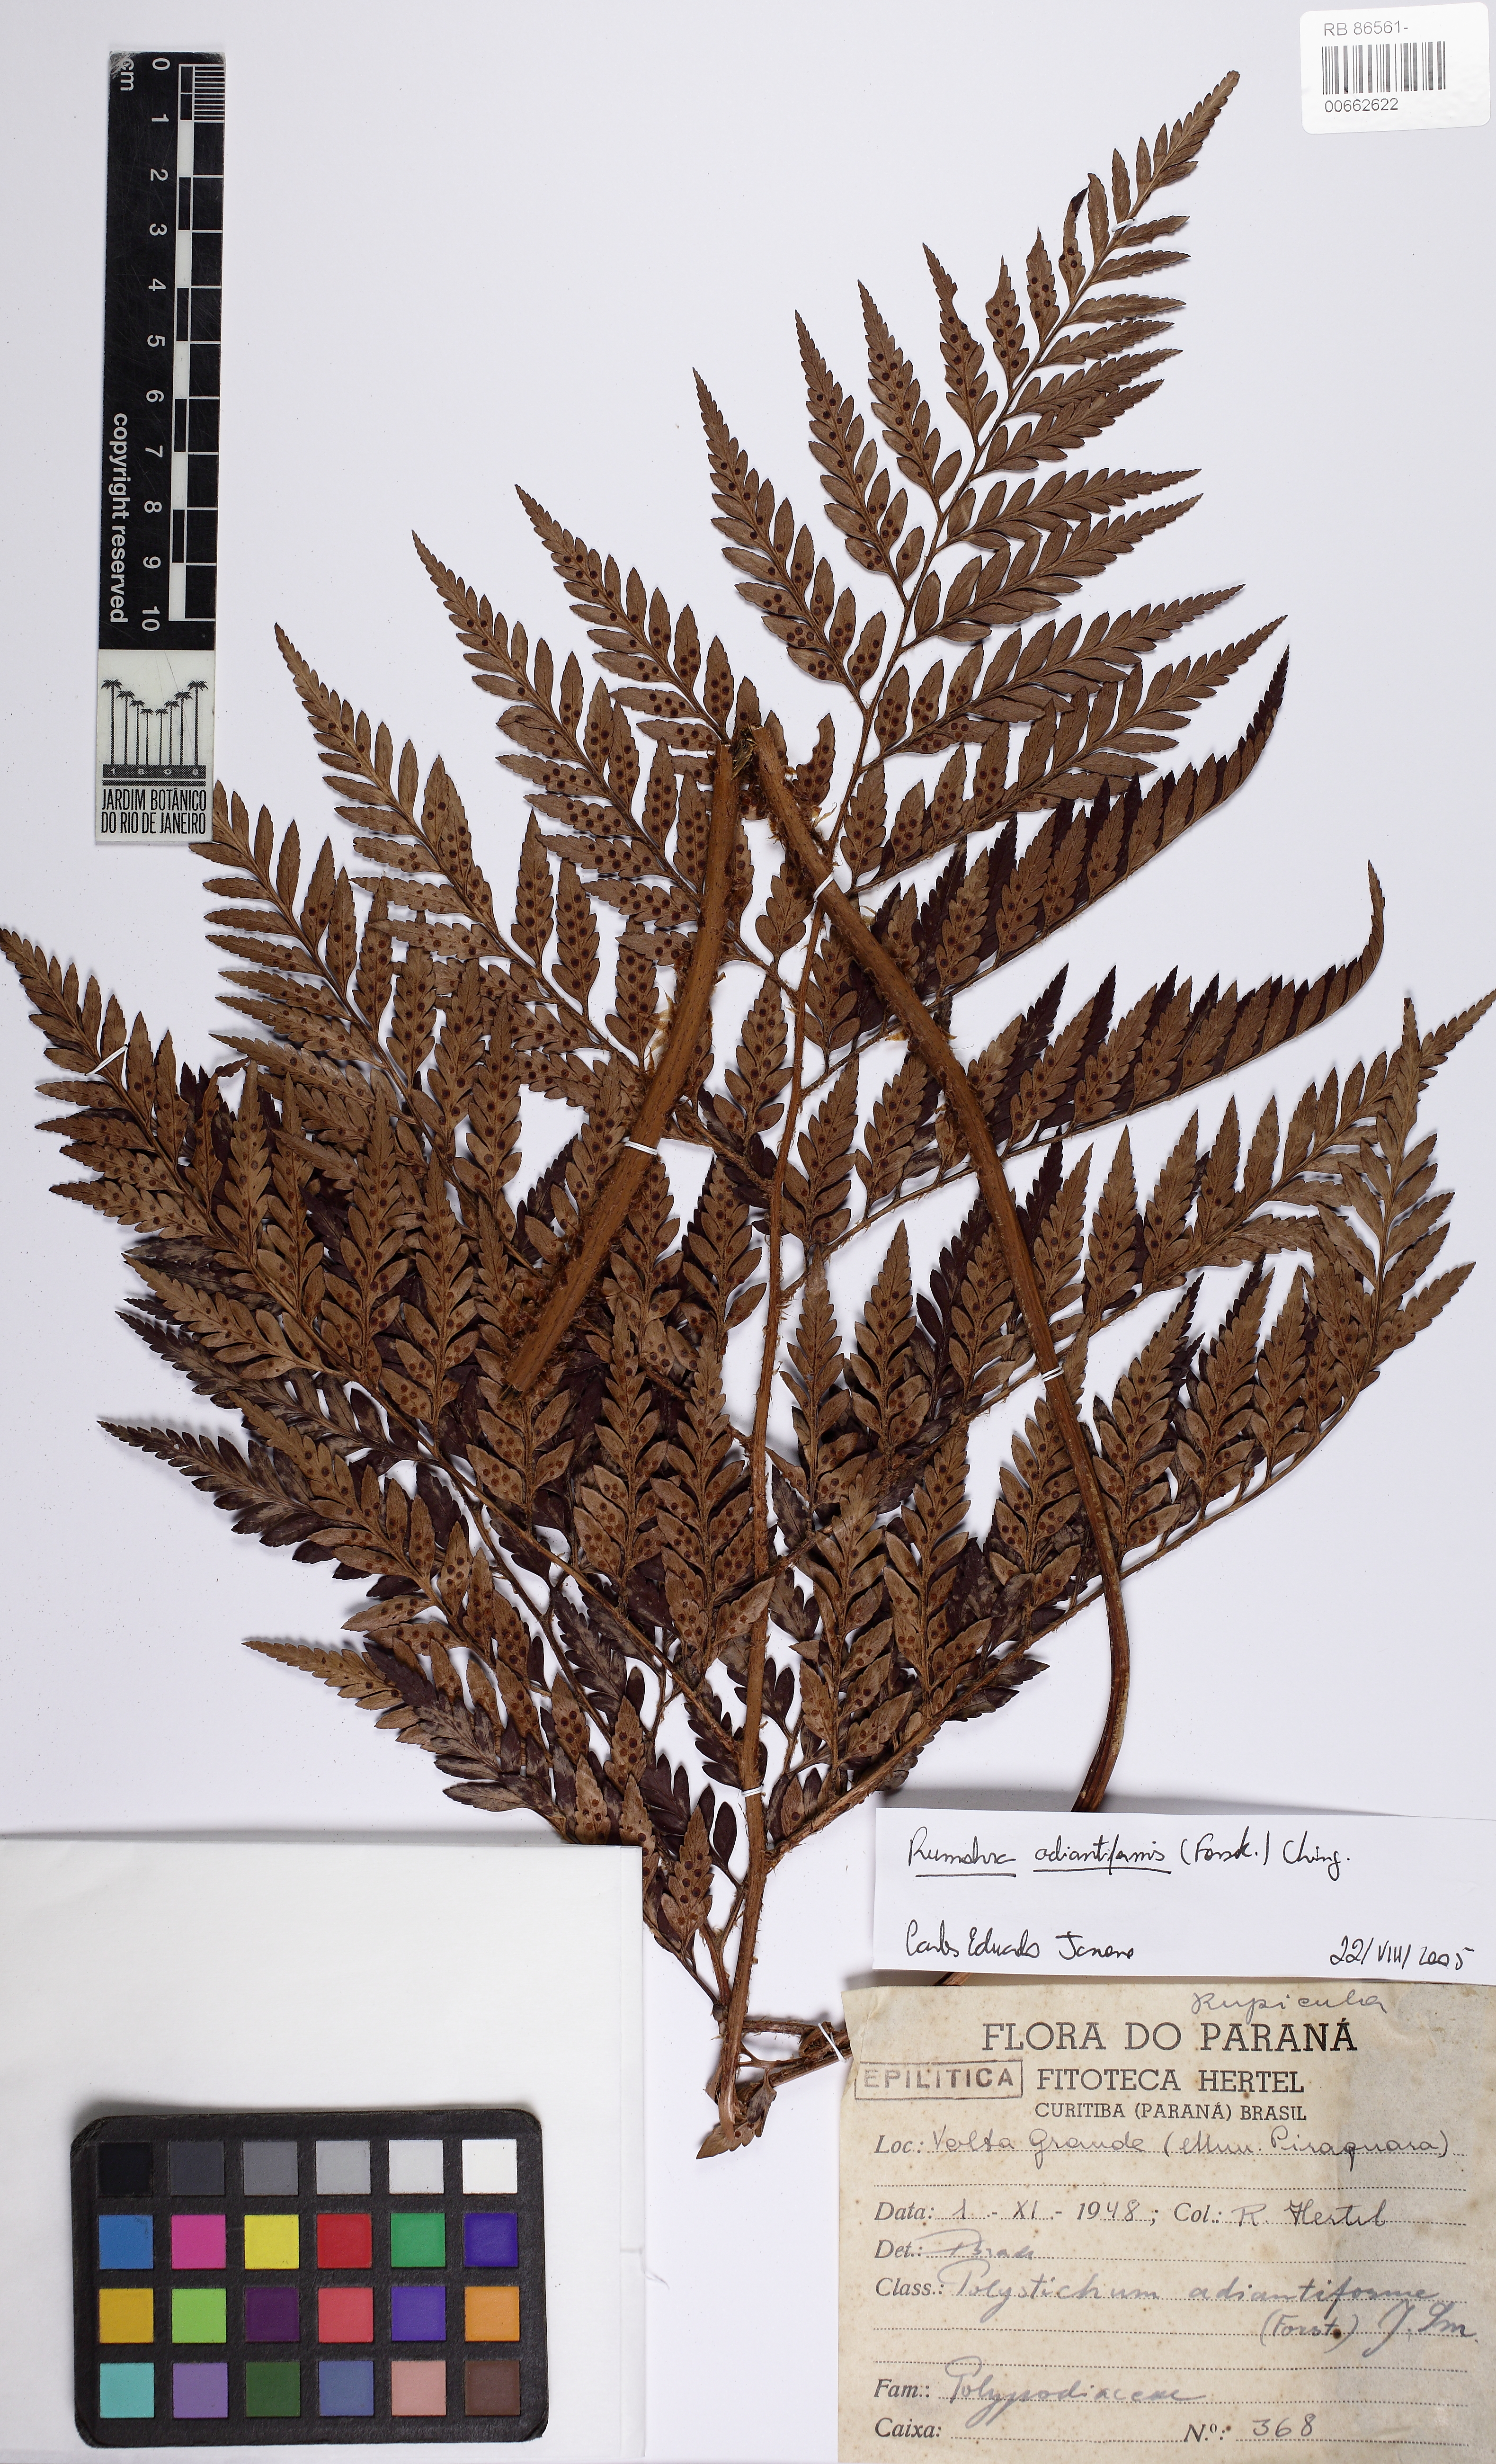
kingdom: Plantae
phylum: Tracheophyta
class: Polypodiopsida
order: Polypodiales
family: Dryopteridaceae
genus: Rumohra
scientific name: Rumohra adiantiformis
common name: Leather fern
